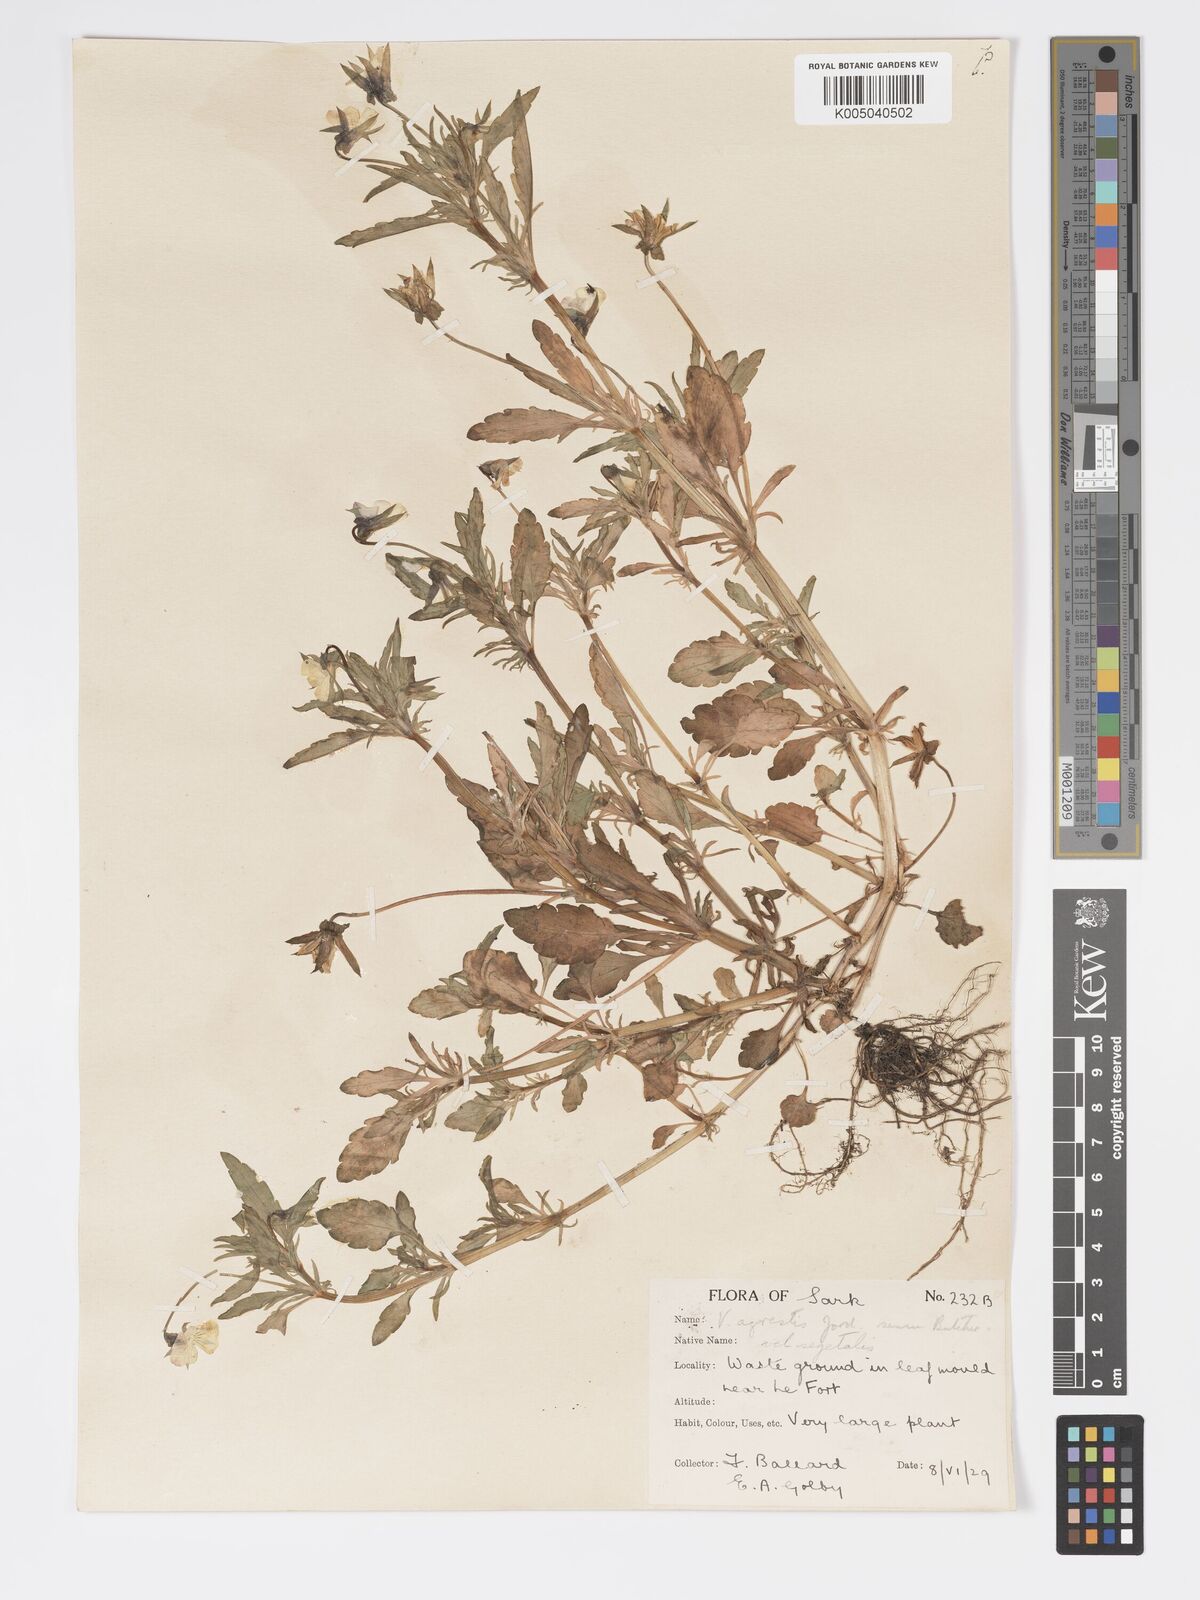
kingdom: Plantae
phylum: Tracheophyta
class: Magnoliopsida
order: Malpighiales
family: Violaceae
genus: Viola
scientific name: Viola arvensis
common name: Field pansy
